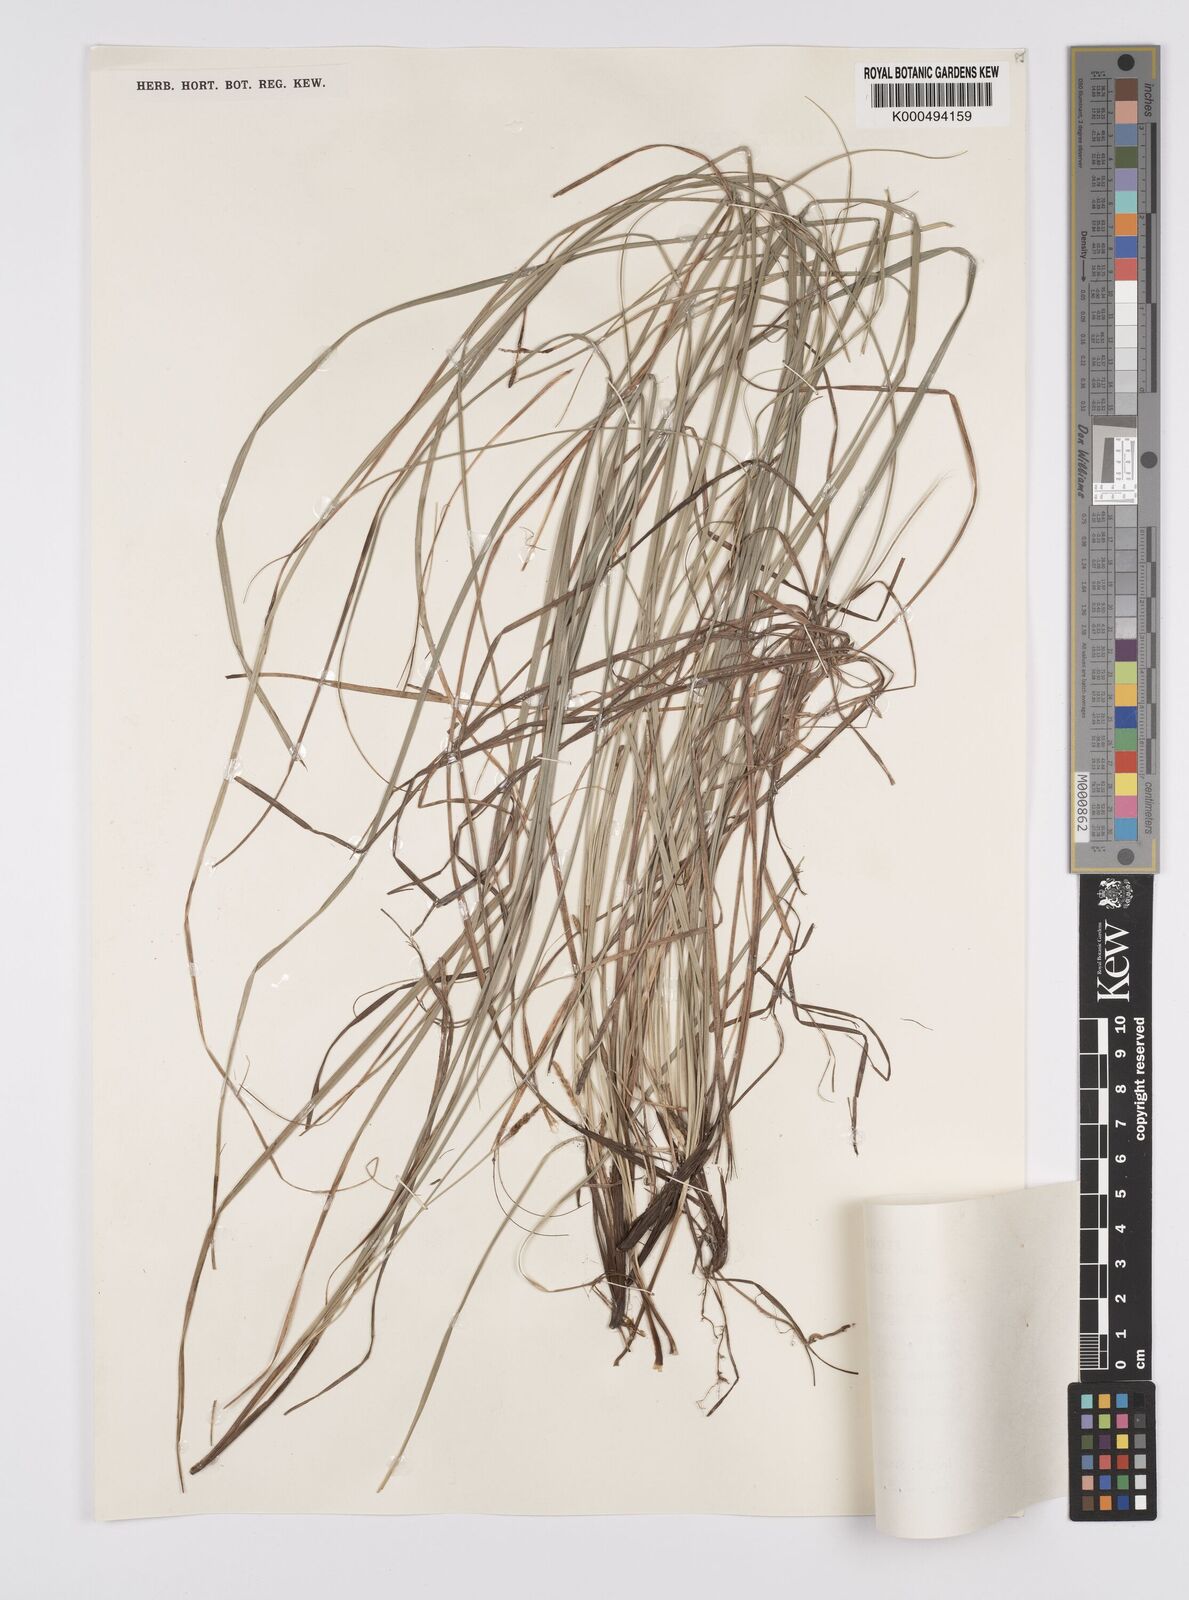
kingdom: Plantae
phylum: Tracheophyta
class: Liliopsida
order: Poales
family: Cyperaceae
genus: Carex
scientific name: Carex speciosa
